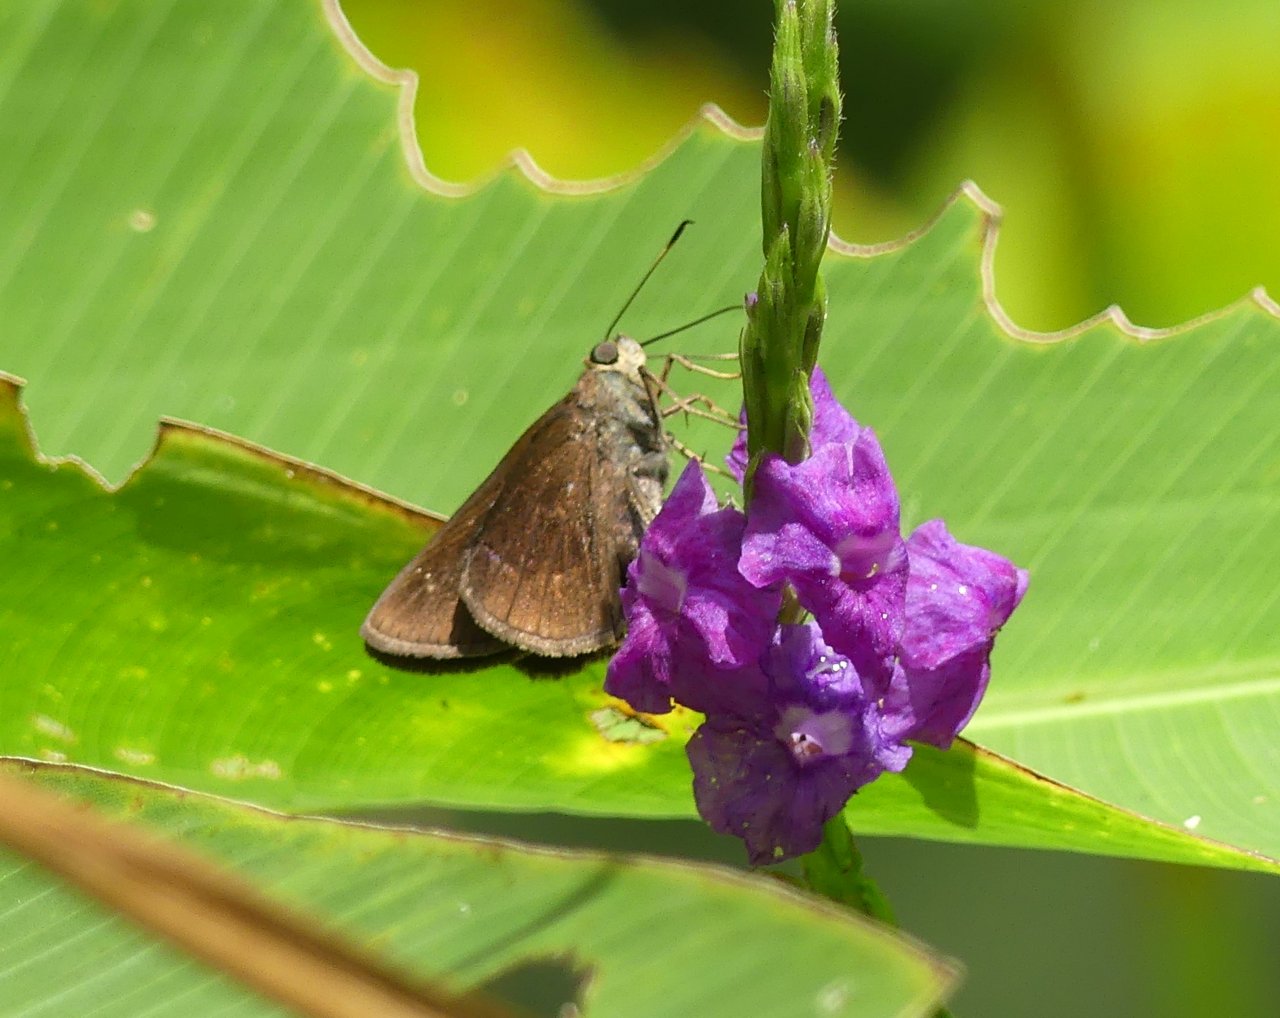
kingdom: Animalia
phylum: Arthropoda
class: Insecta
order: Lepidoptera
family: Hesperiidae
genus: Cynea
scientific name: Cynea cynea
